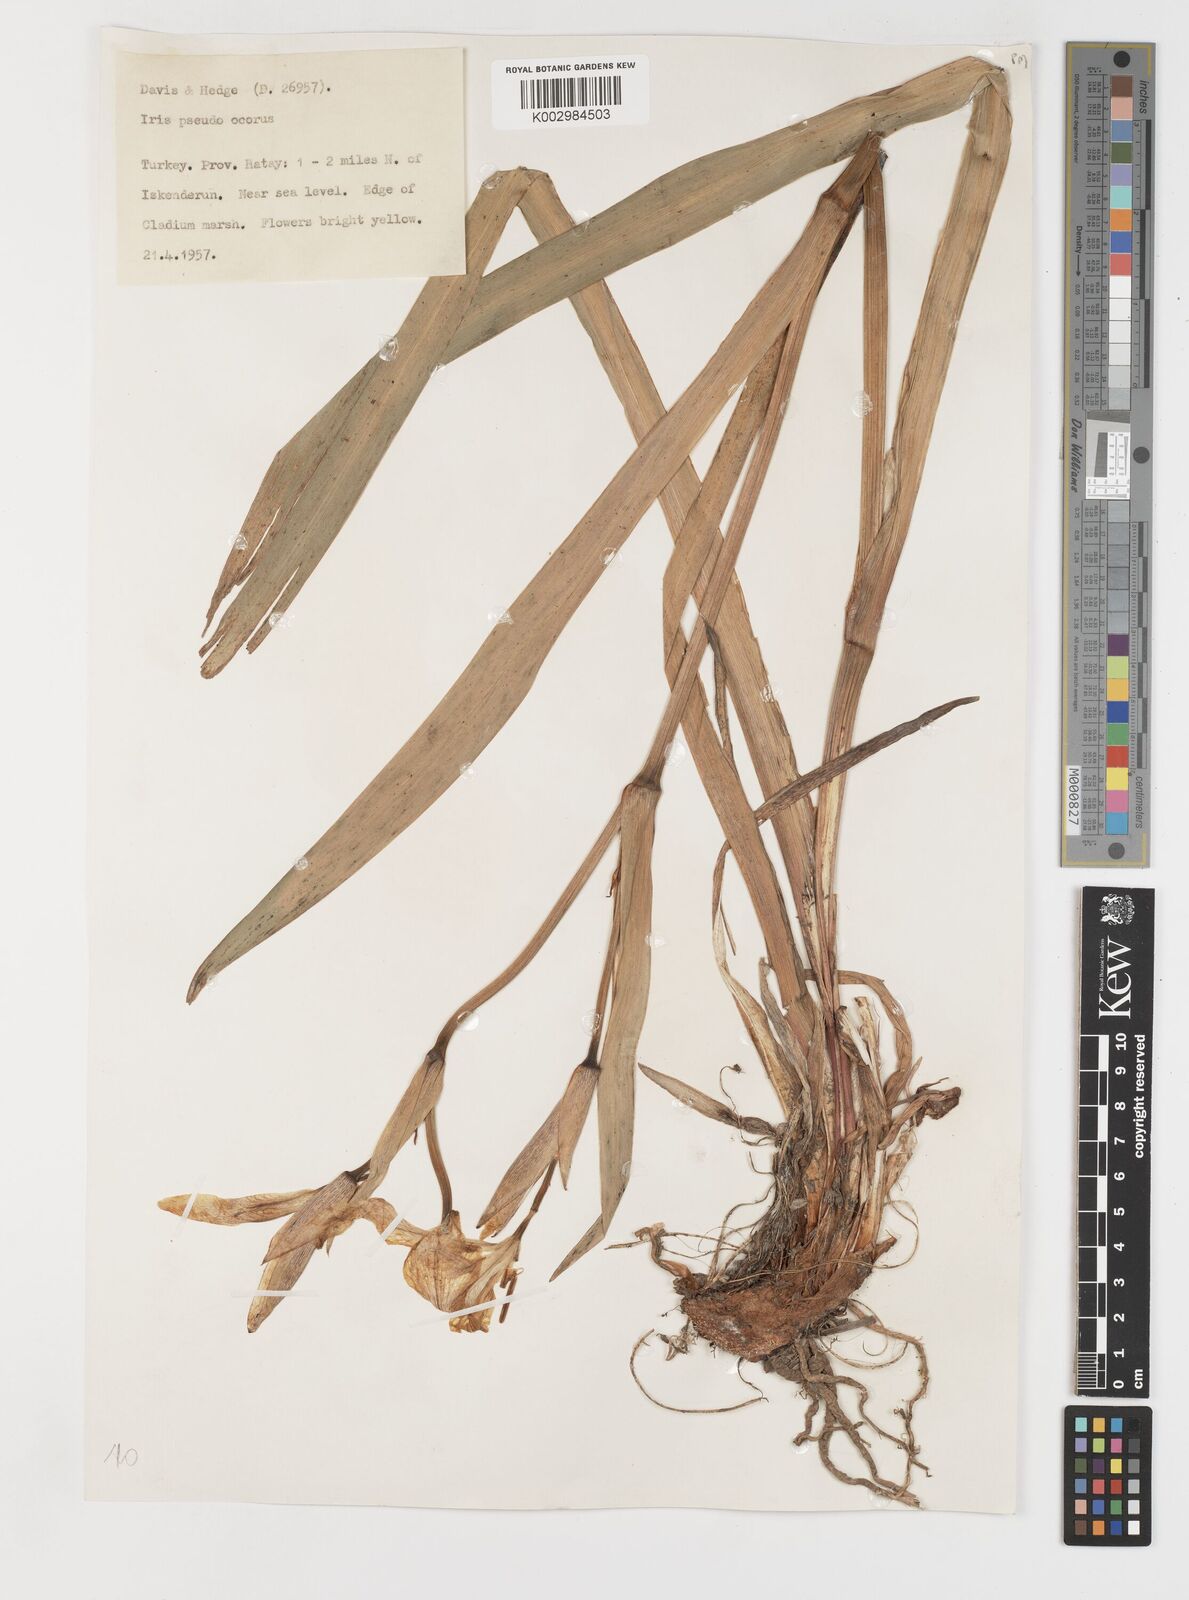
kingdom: Plantae
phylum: Tracheophyta
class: Liliopsida
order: Asparagales
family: Iridaceae
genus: Iris
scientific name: Iris pseudacorus
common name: Yellow flag
